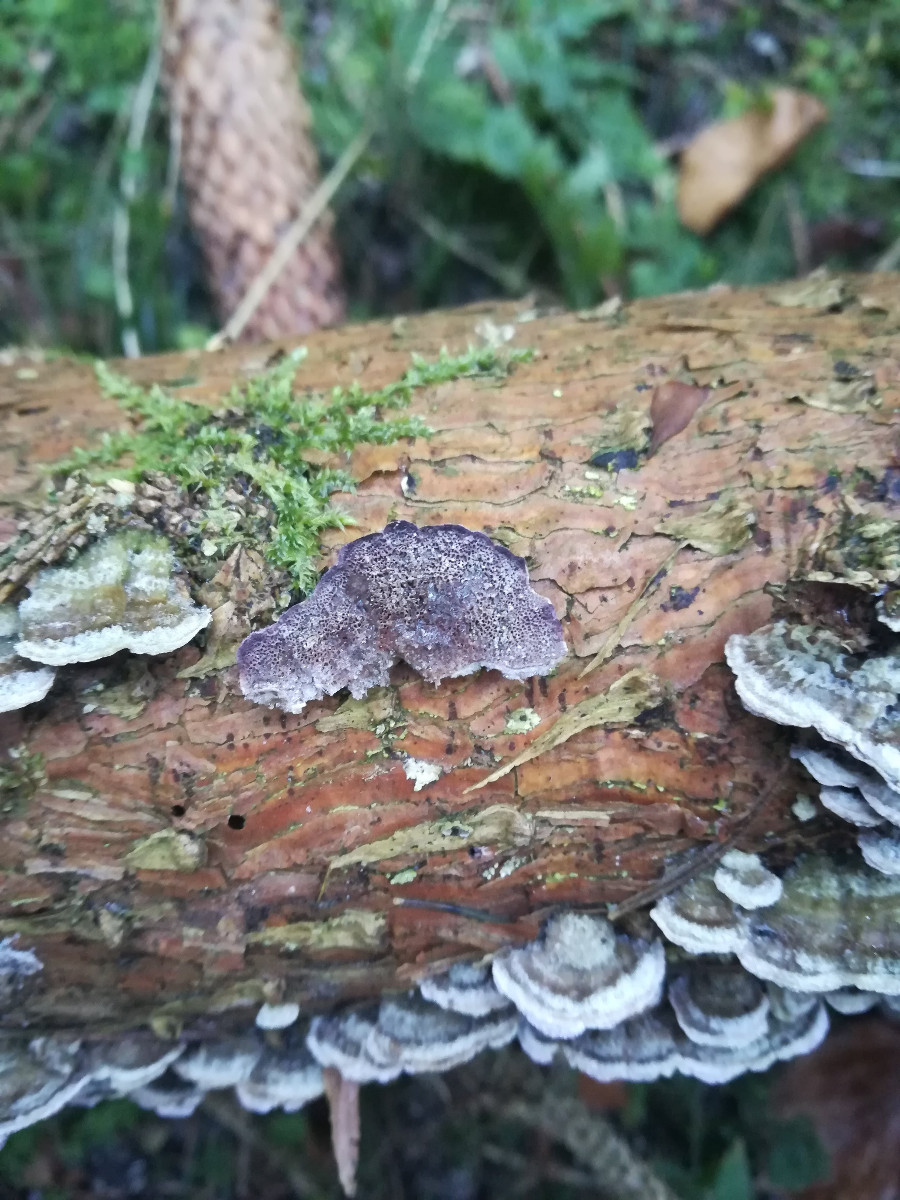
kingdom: Fungi
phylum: Basidiomycota
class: Agaricomycetes
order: Hymenochaetales
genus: Trichaptum
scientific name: Trichaptum abietinum
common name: almindelig violporesvamp
